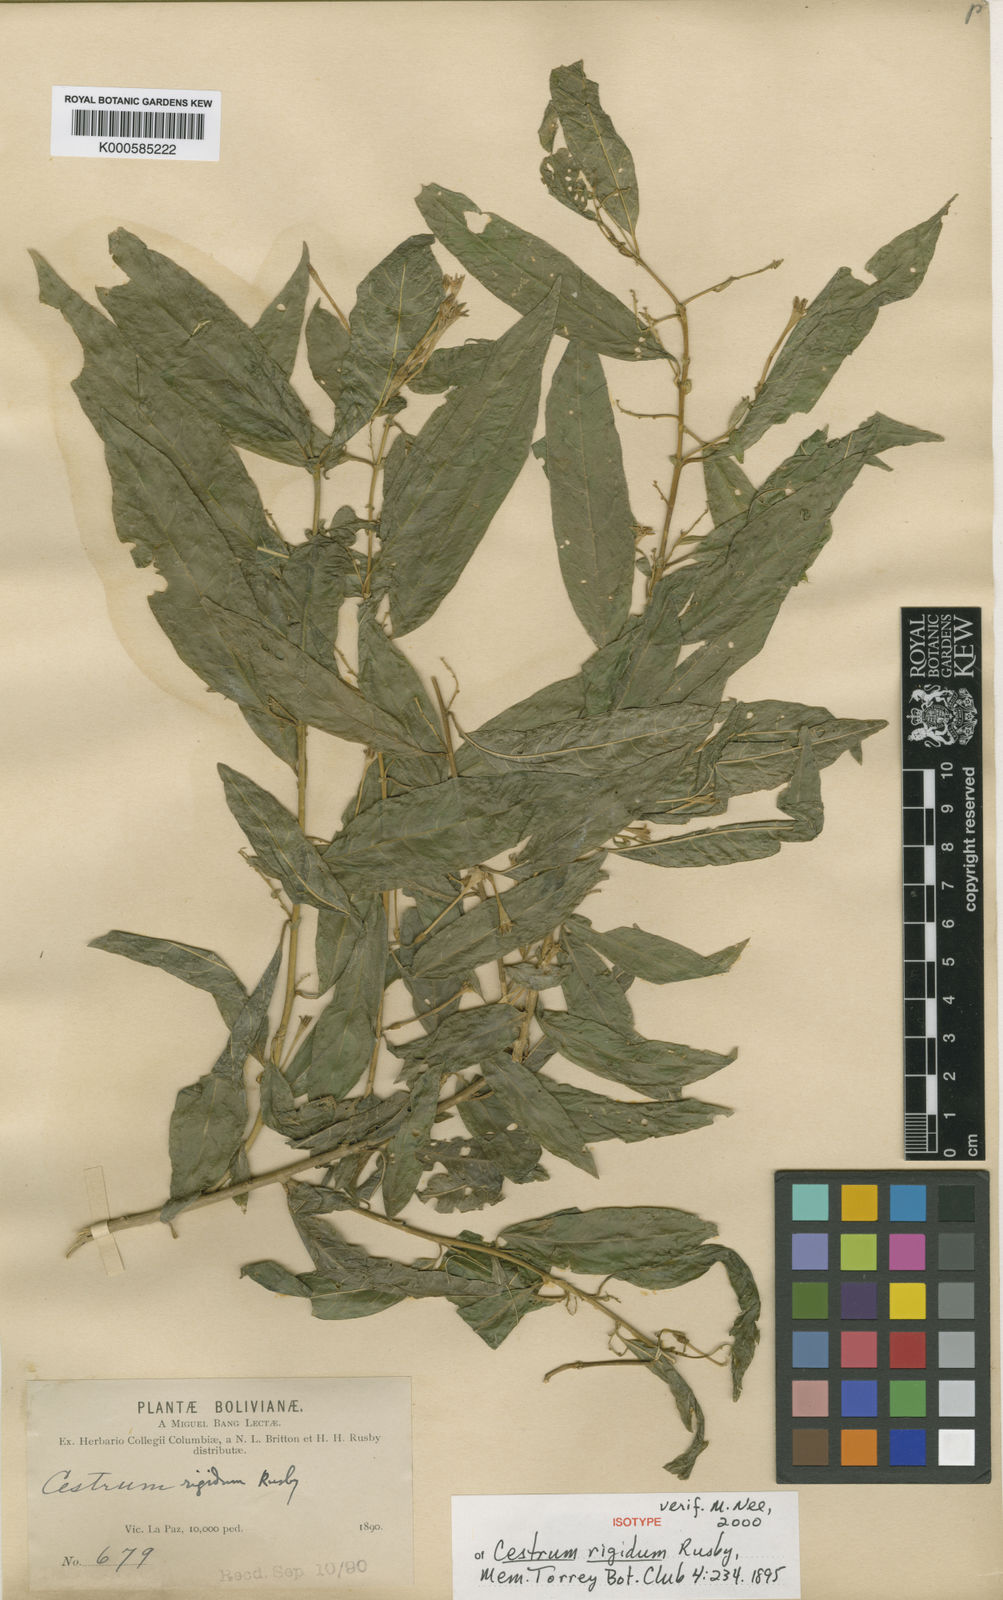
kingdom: Plantae
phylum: Tracheophyta
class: Magnoliopsida
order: Solanales
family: Solanaceae
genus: Cestrum
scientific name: Cestrum rigidum
